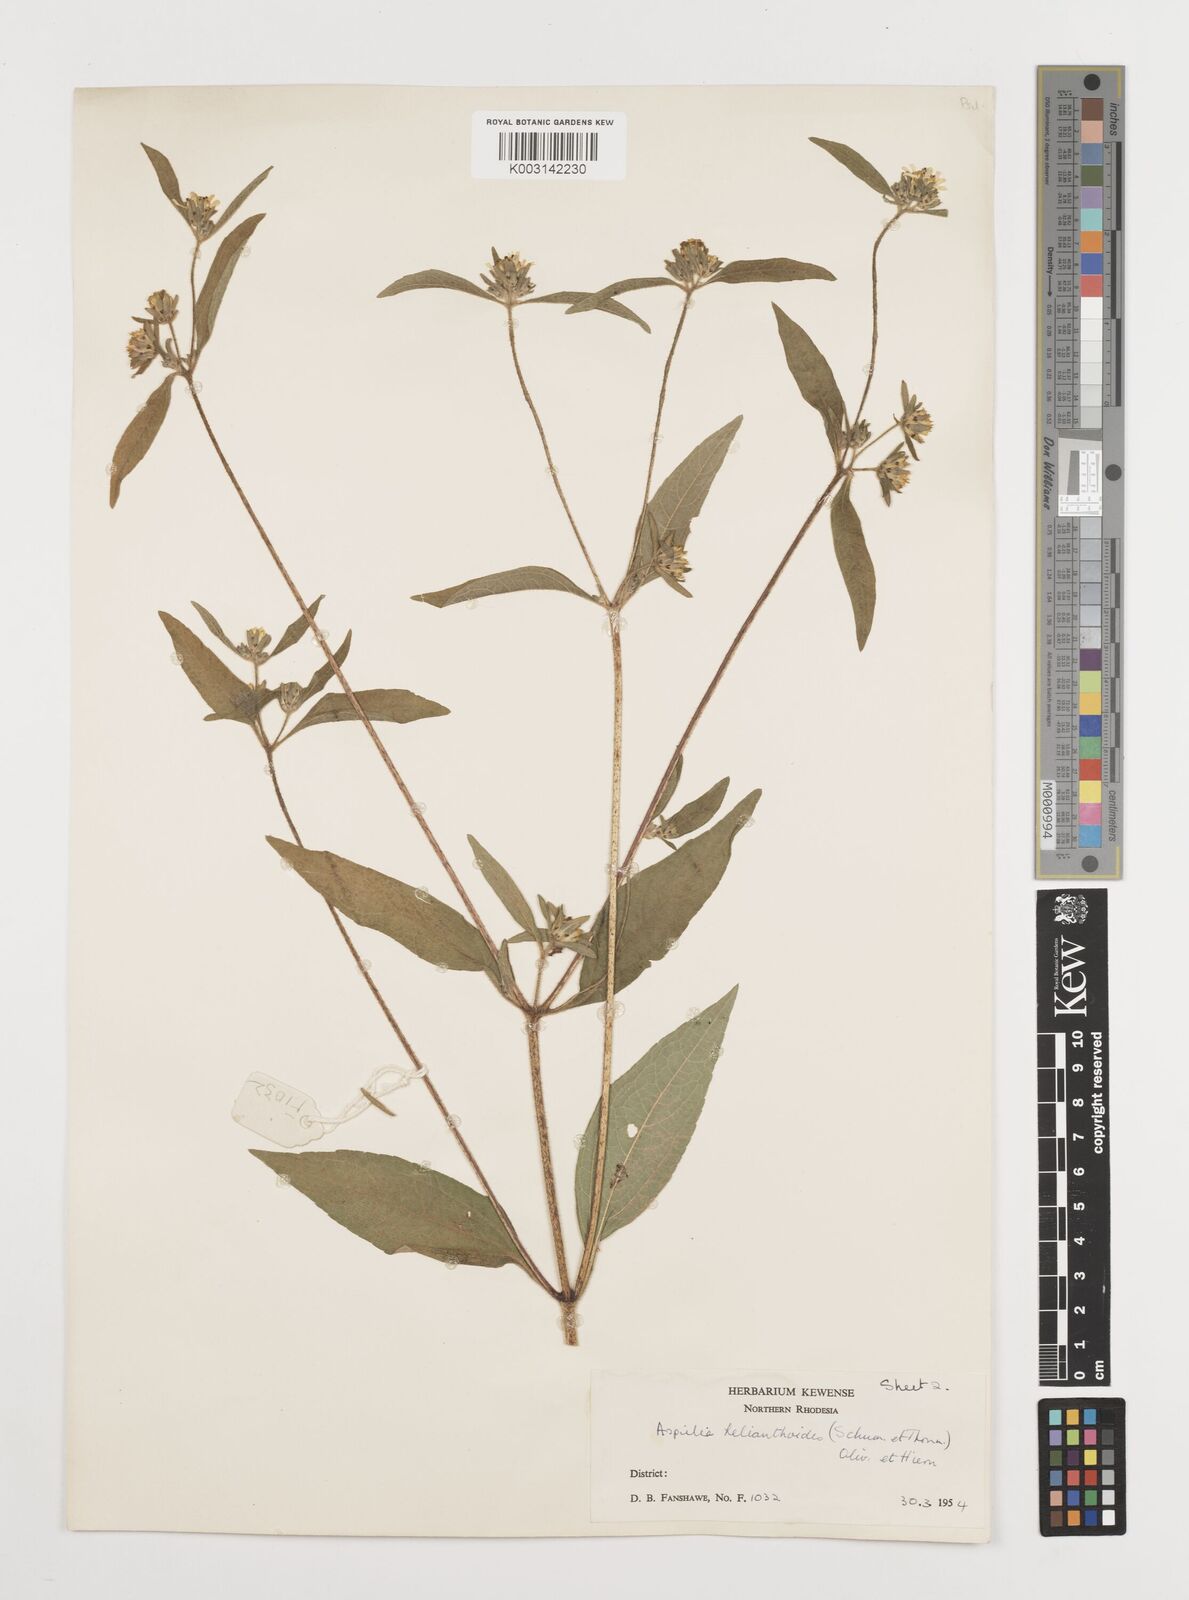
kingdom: Plantae
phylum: Tracheophyta
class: Magnoliopsida
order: Asterales
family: Asteraceae
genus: Aspilia
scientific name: Aspilia ciliata
